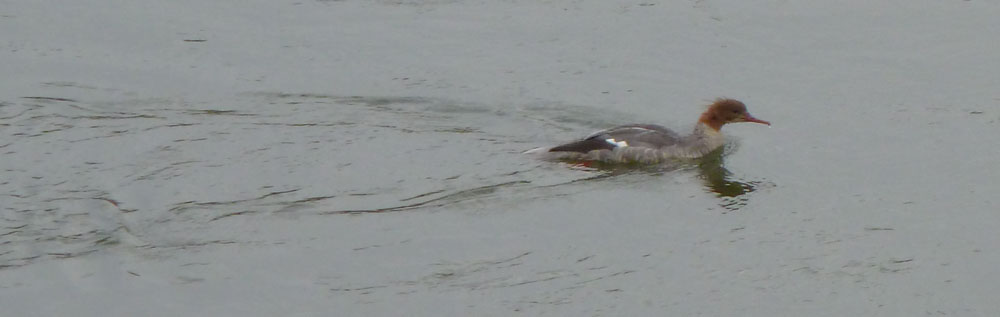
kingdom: Animalia
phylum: Chordata
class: Aves
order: Anseriformes
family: Anatidae
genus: Mergus
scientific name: Mergus merganser
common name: Common merganser
